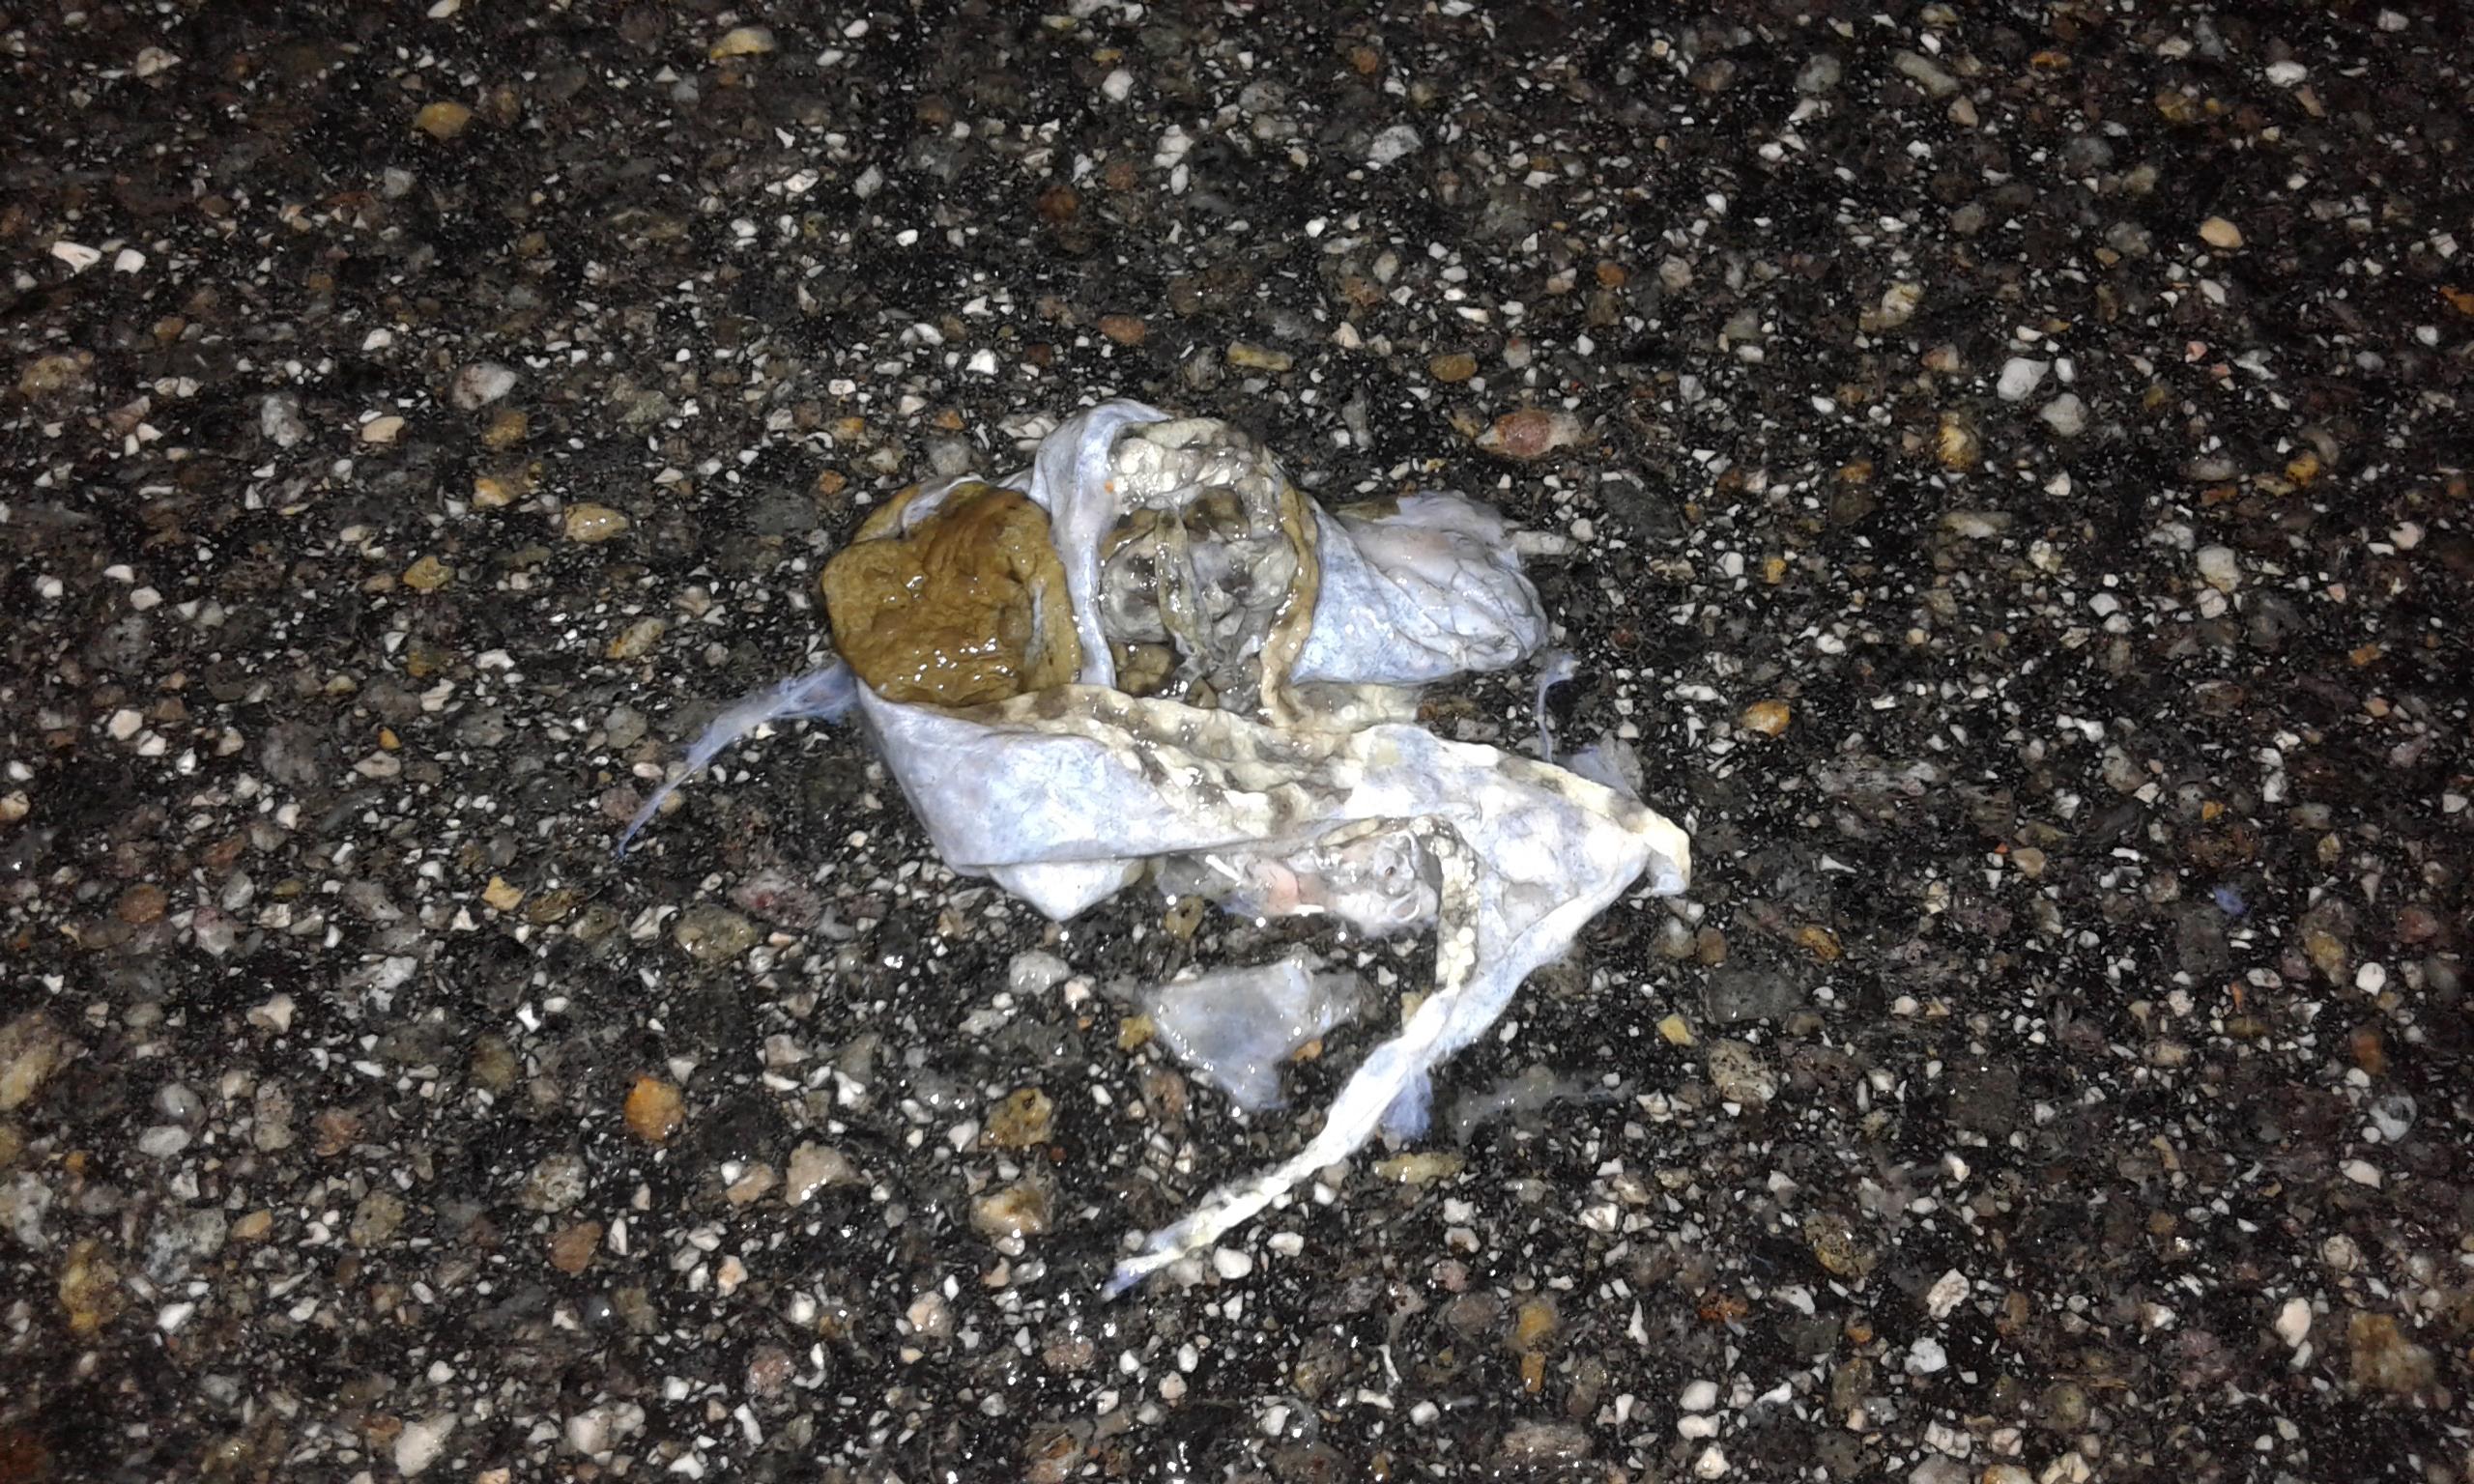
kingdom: Animalia
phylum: Chordata
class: Amphibia
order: Anura
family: Bufonidae
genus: Bufo
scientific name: Bufo bufo
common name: Common toad
